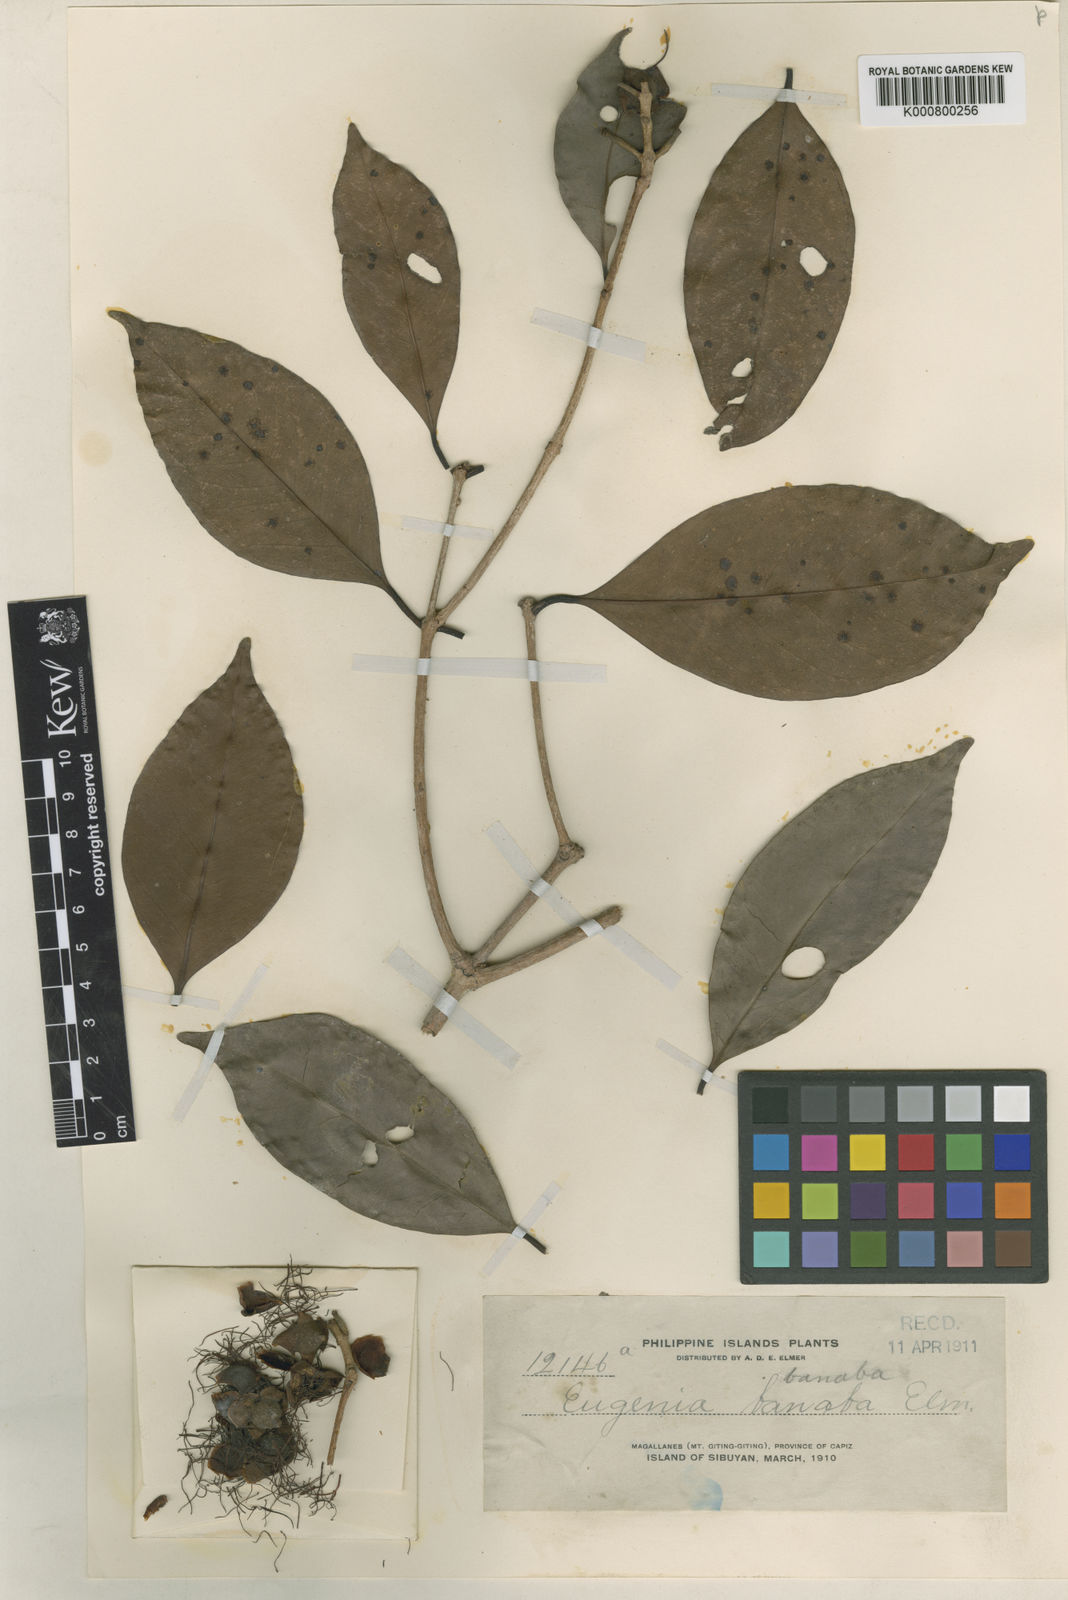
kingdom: Plantae
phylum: Tracheophyta
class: Magnoliopsida
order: Myrtales
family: Myrtaceae
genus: Syzygium
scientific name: Syzygium globosum
